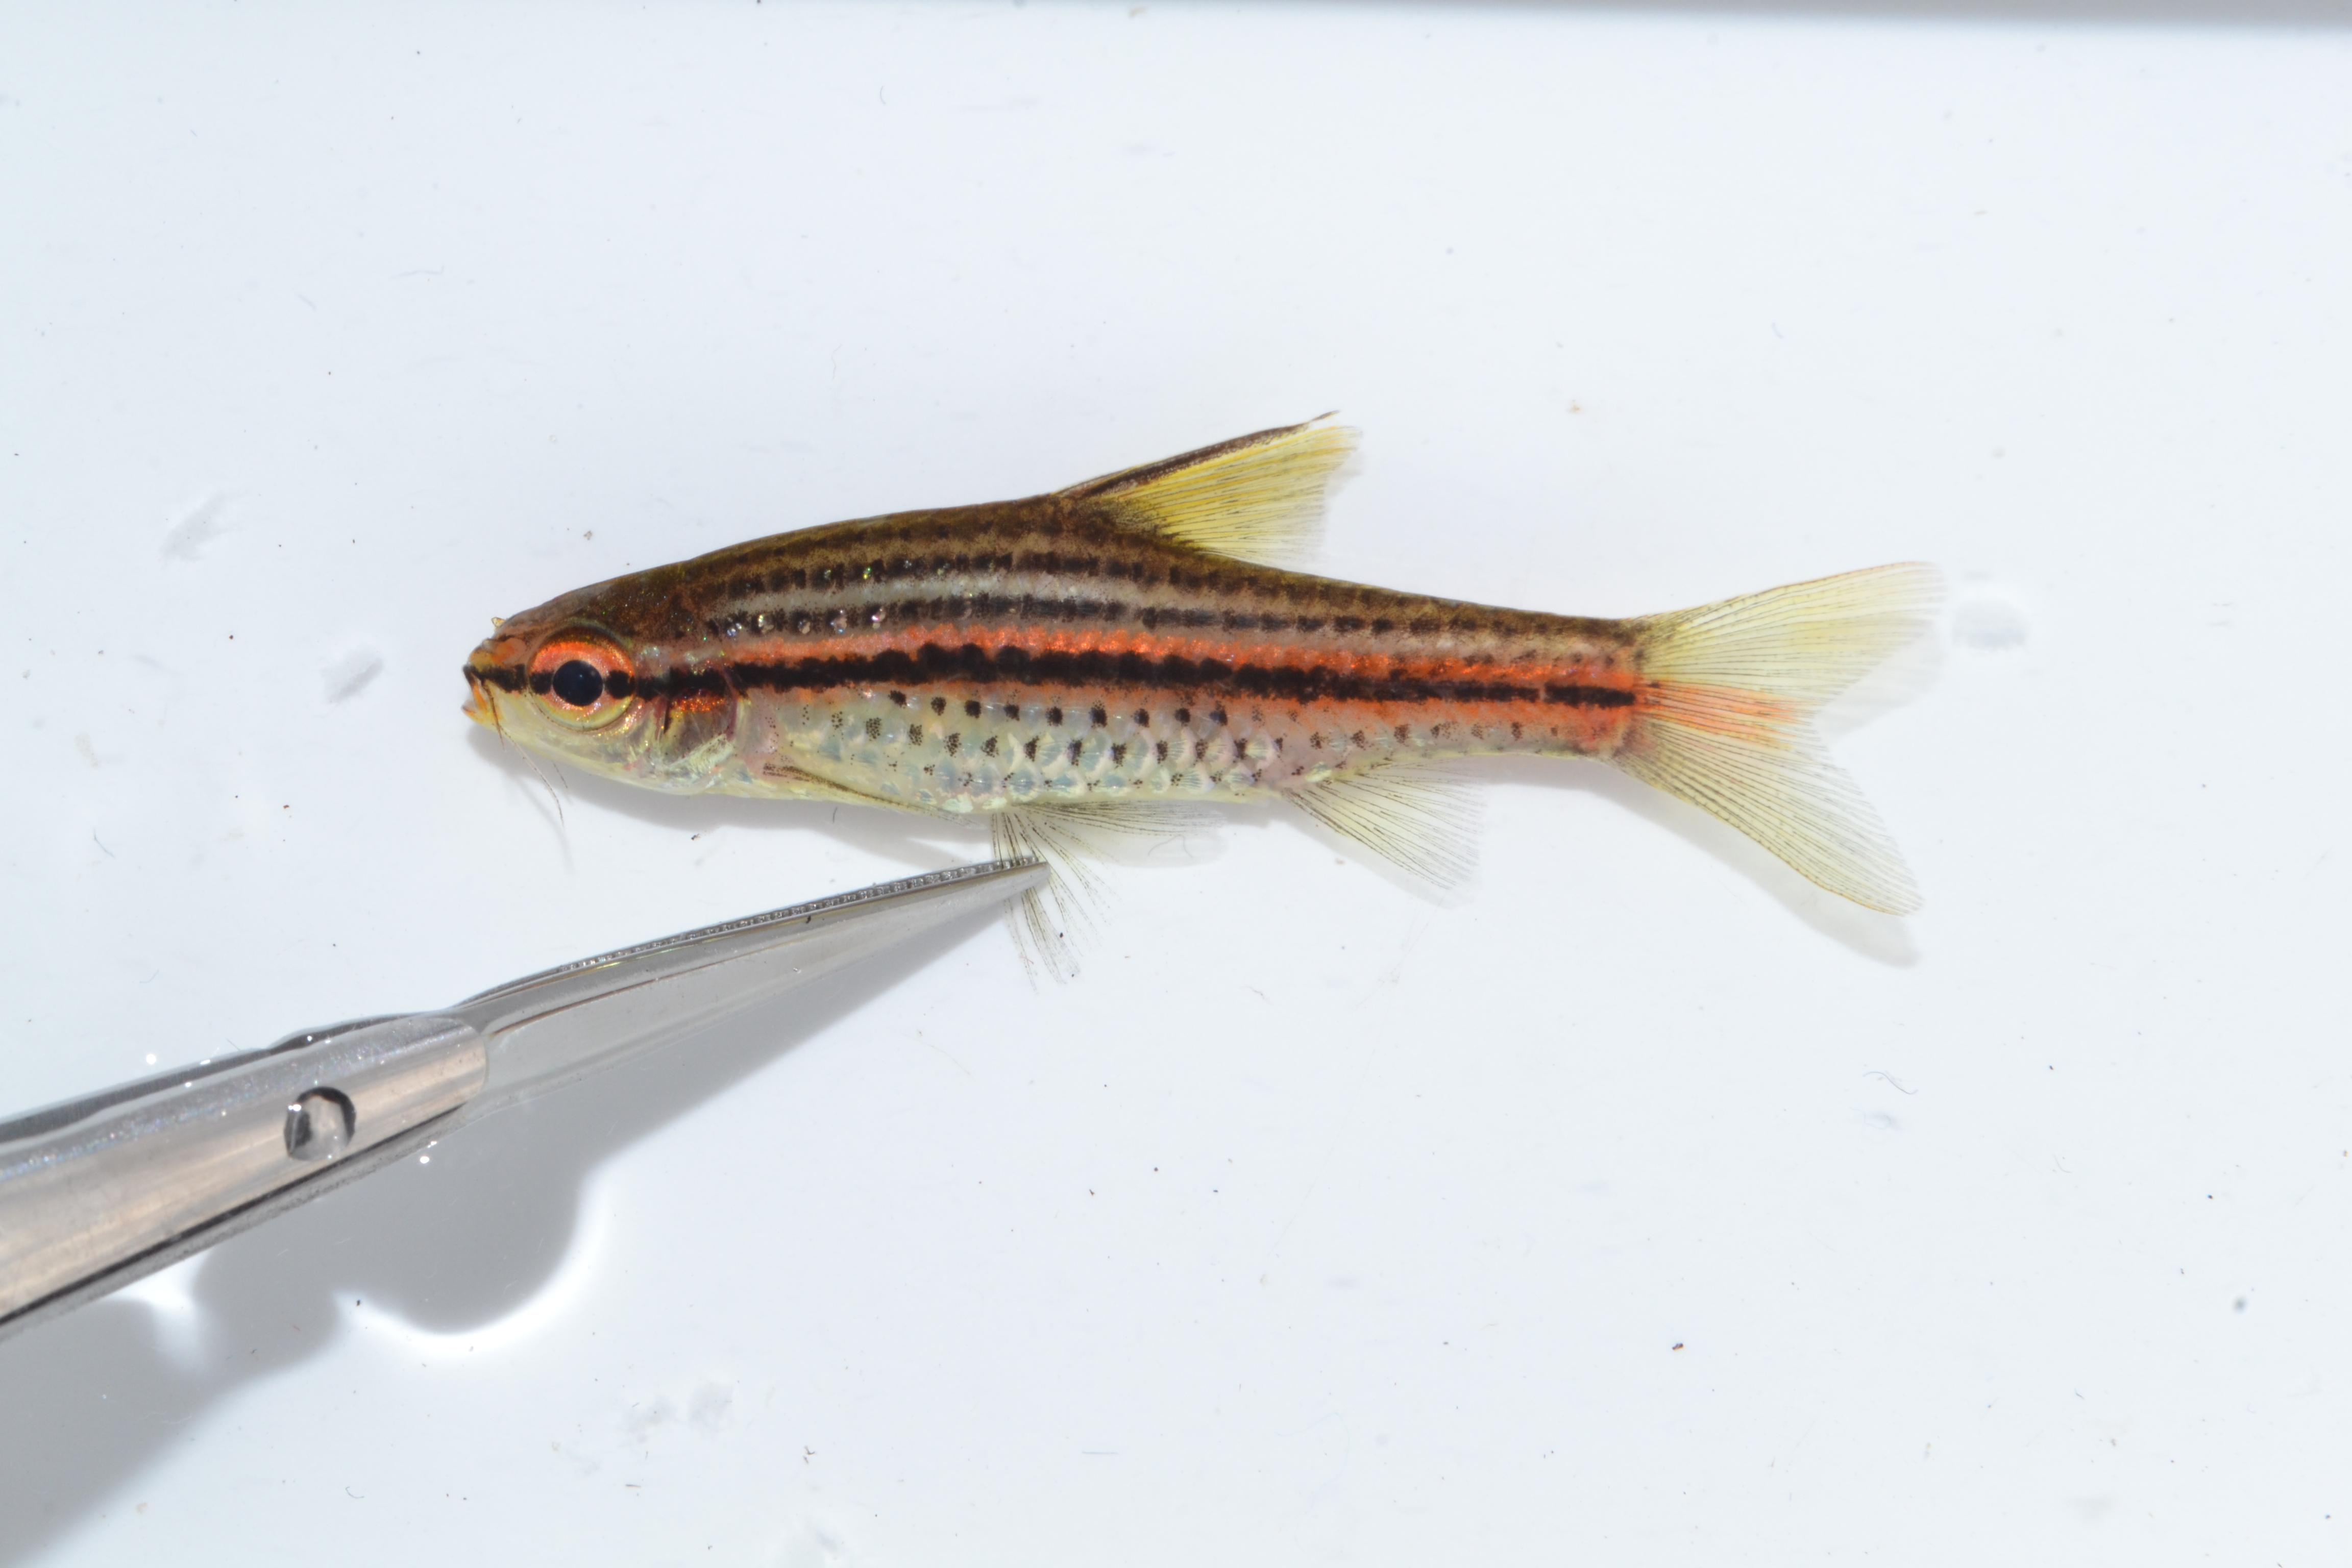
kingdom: Animalia
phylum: Chordata
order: Cypriniformes
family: Cyprinidae
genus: Enteromius
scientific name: Enteromius multilineatus
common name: Copperstripe barb
